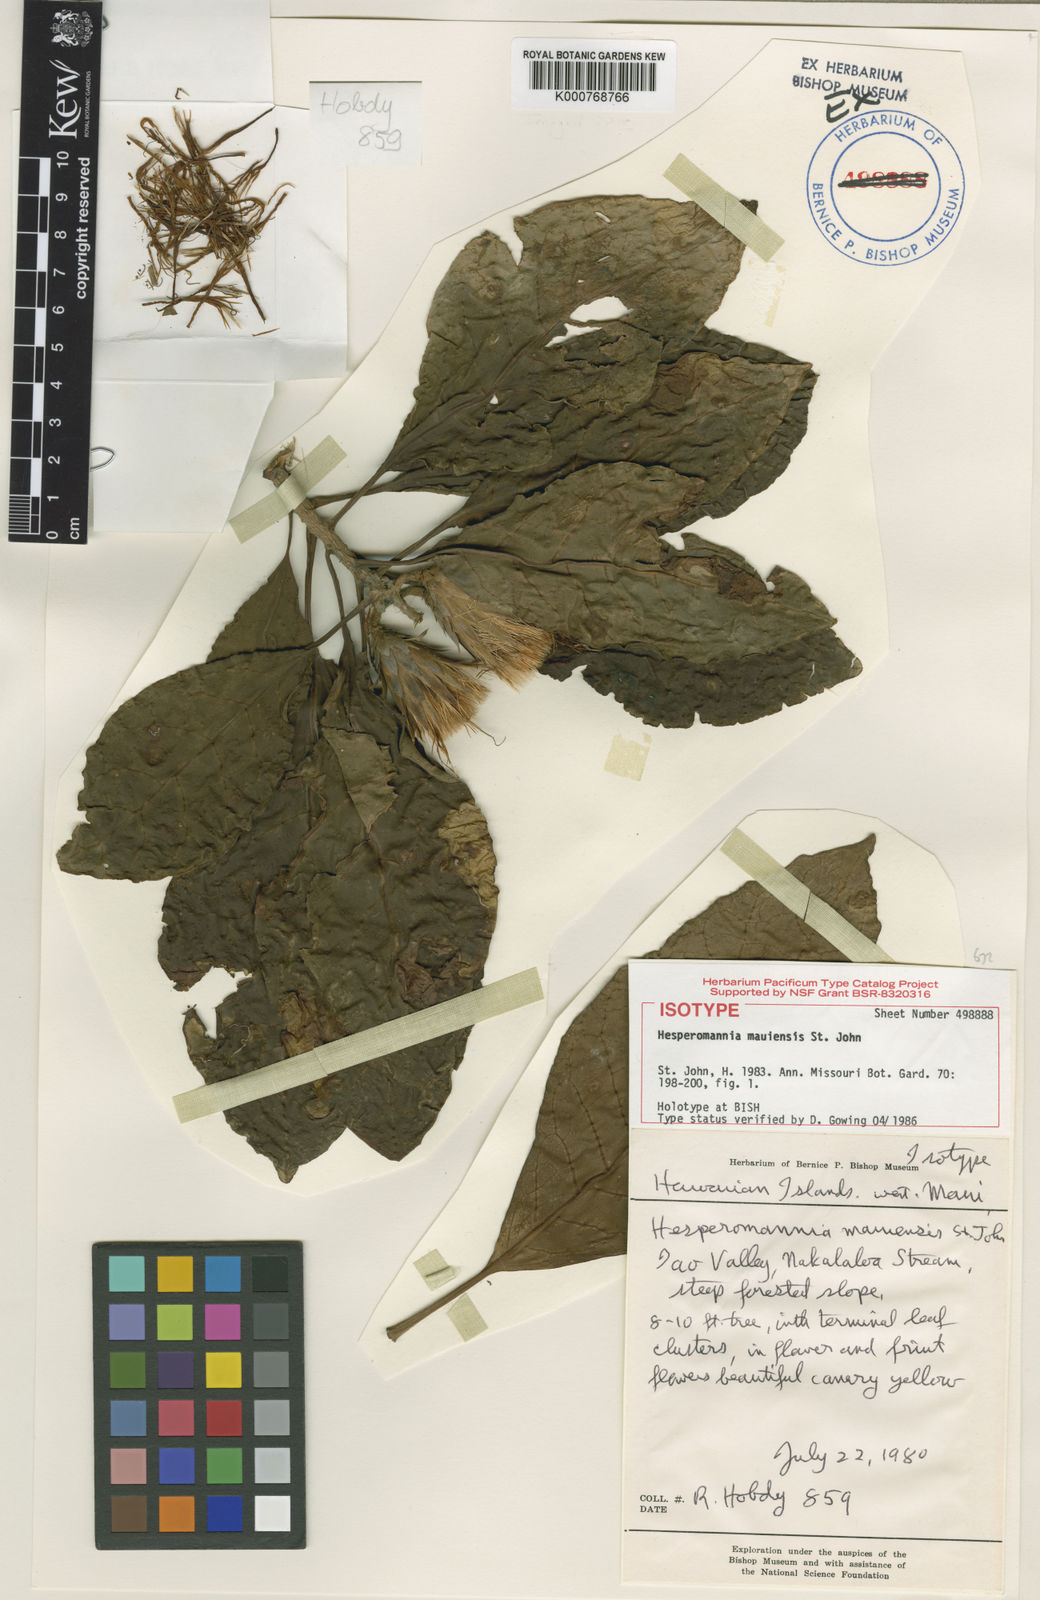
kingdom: Plantae
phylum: Tracheophyta
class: Magnoliopsida
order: Asterales
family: Asteraceae
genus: Hesperomannia
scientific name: Hesperomannia arborescens
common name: Lanai hesperomannia
